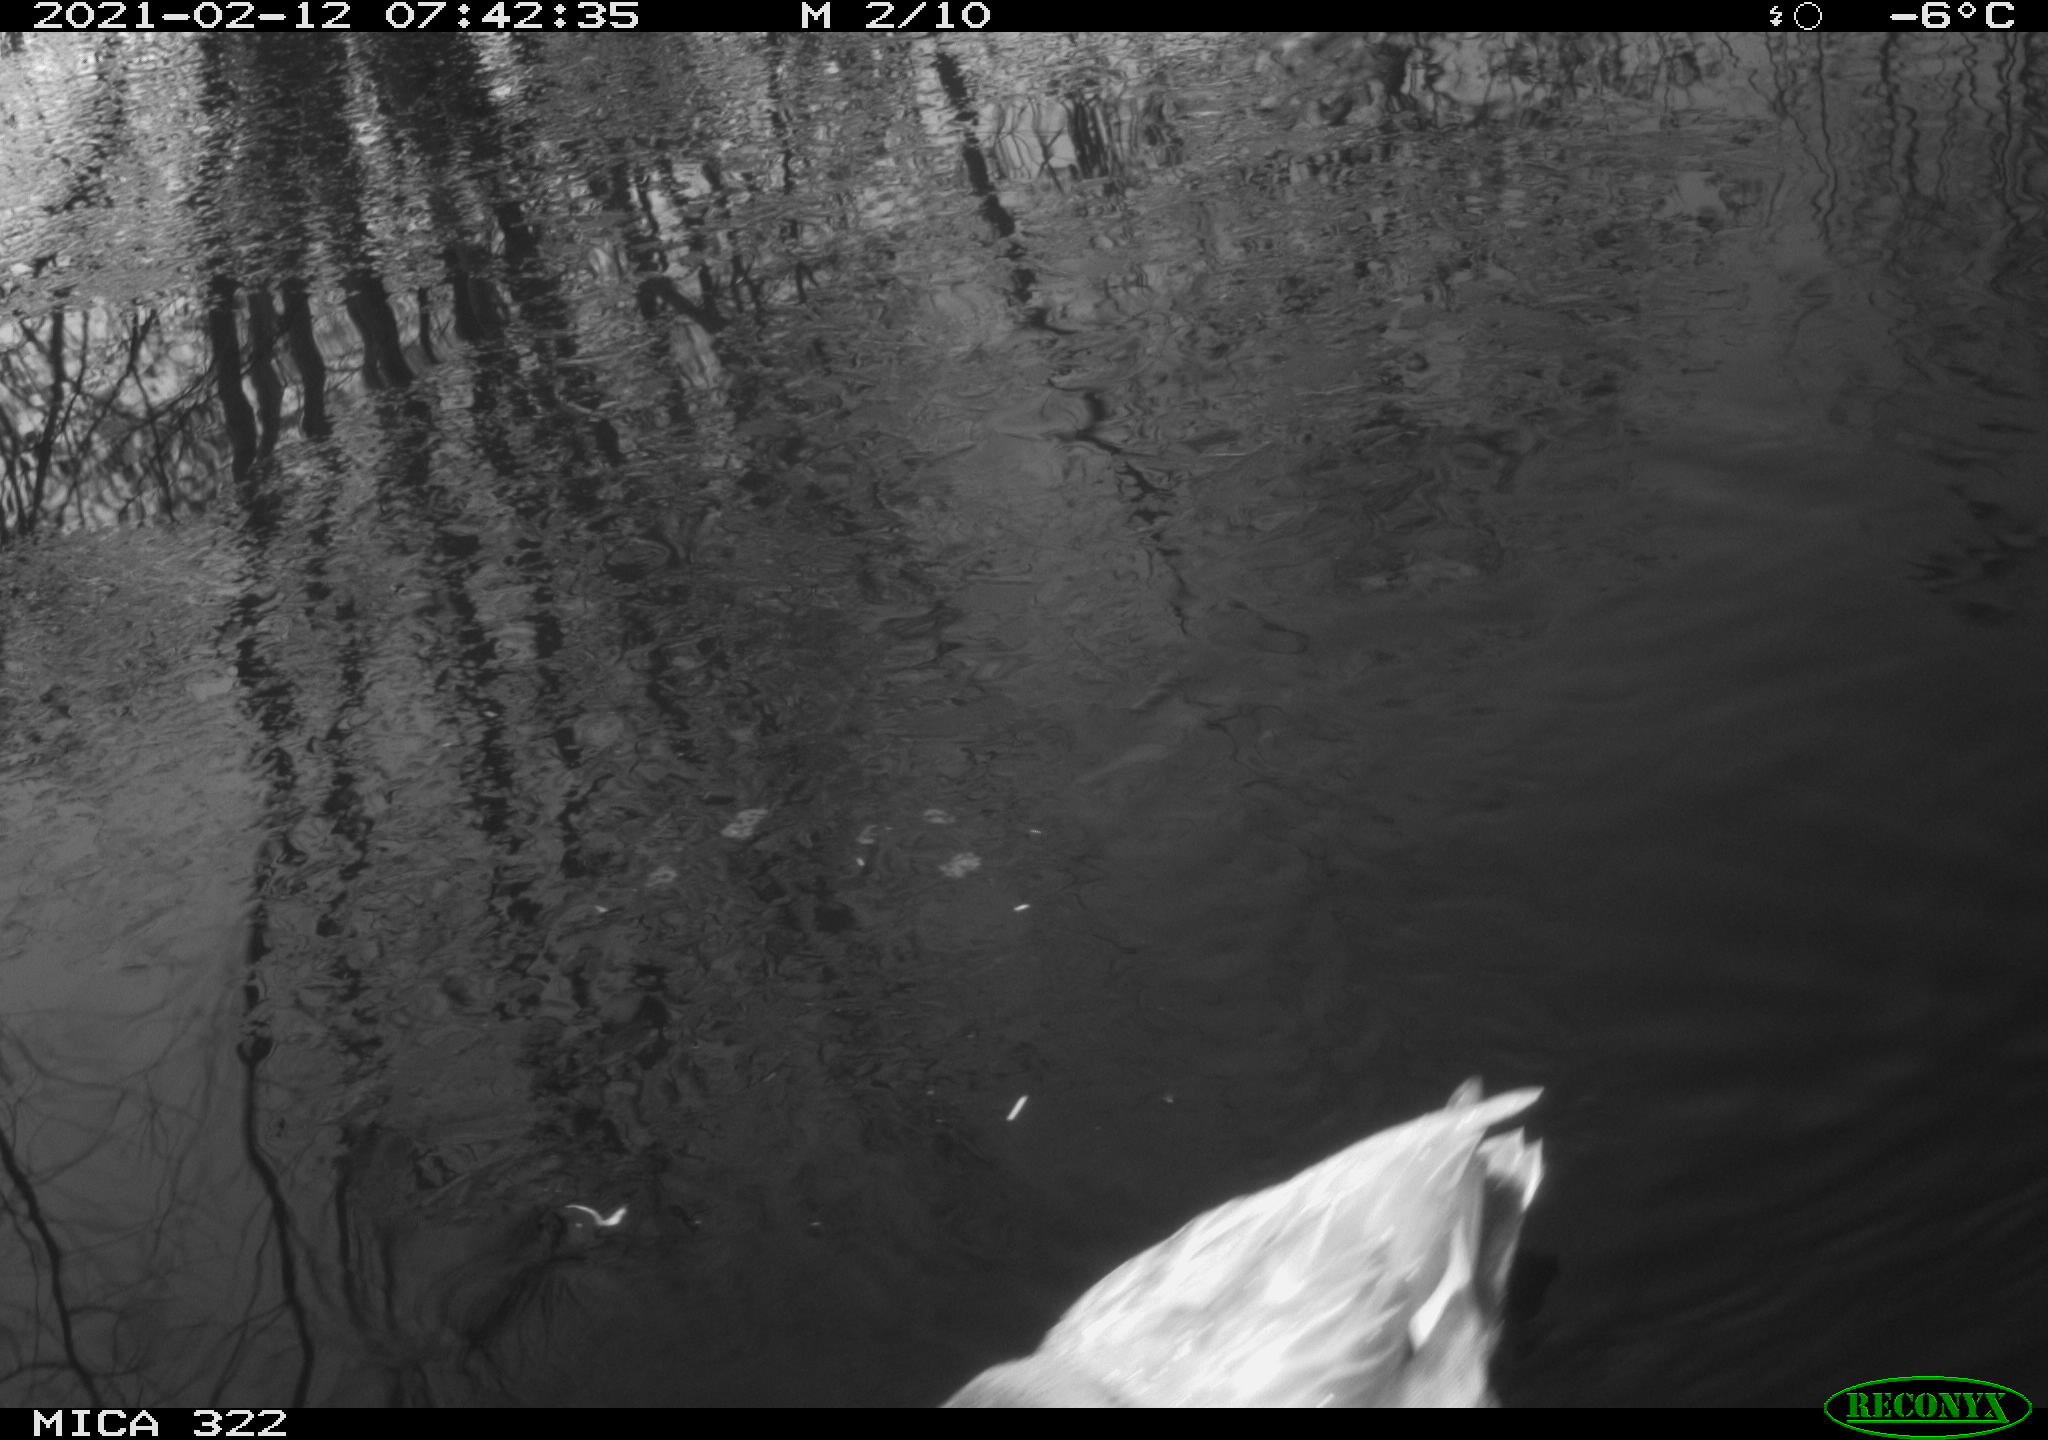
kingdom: Animalia
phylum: Chordata
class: Aves
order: Anseriformes
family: Anatidae
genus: Anas
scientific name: Anas platyrhynchos
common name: Mallard
